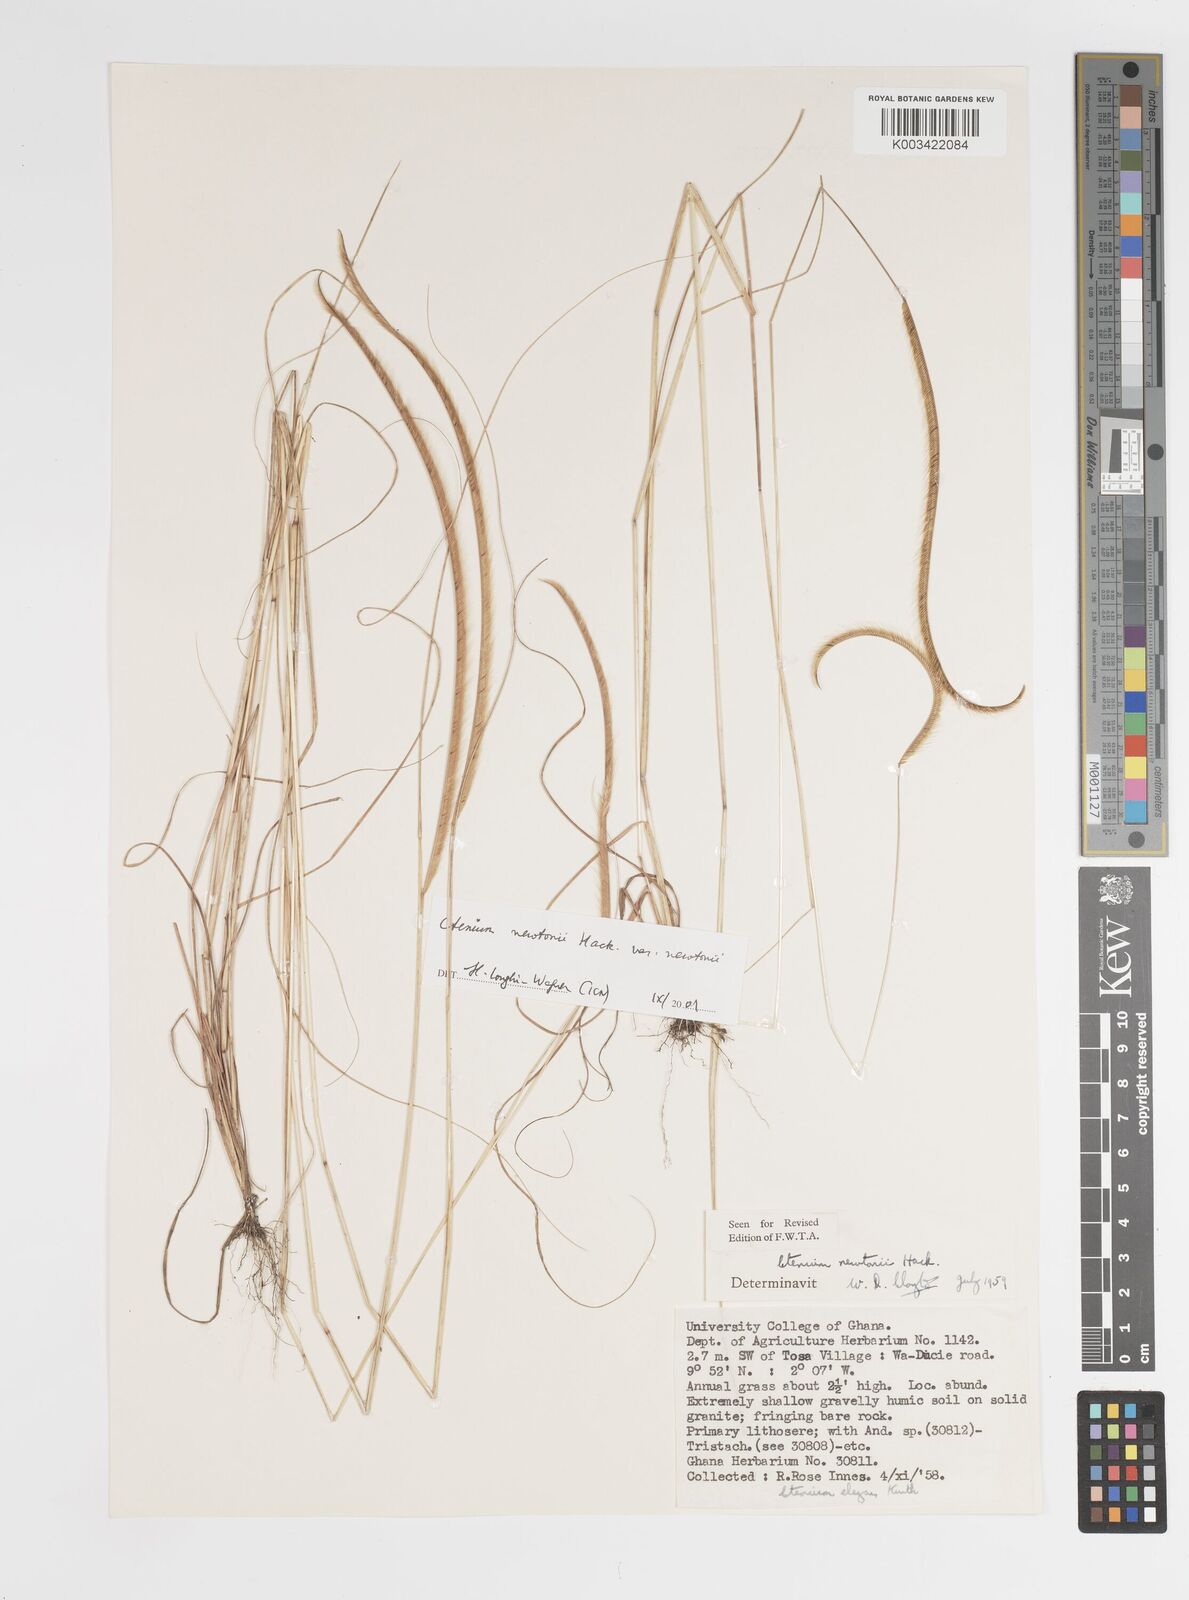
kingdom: Plantae
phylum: Tracheophyta
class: Liliopsida
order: Poales
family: Poaceae
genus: Ctenium
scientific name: Ctenium newtonii
